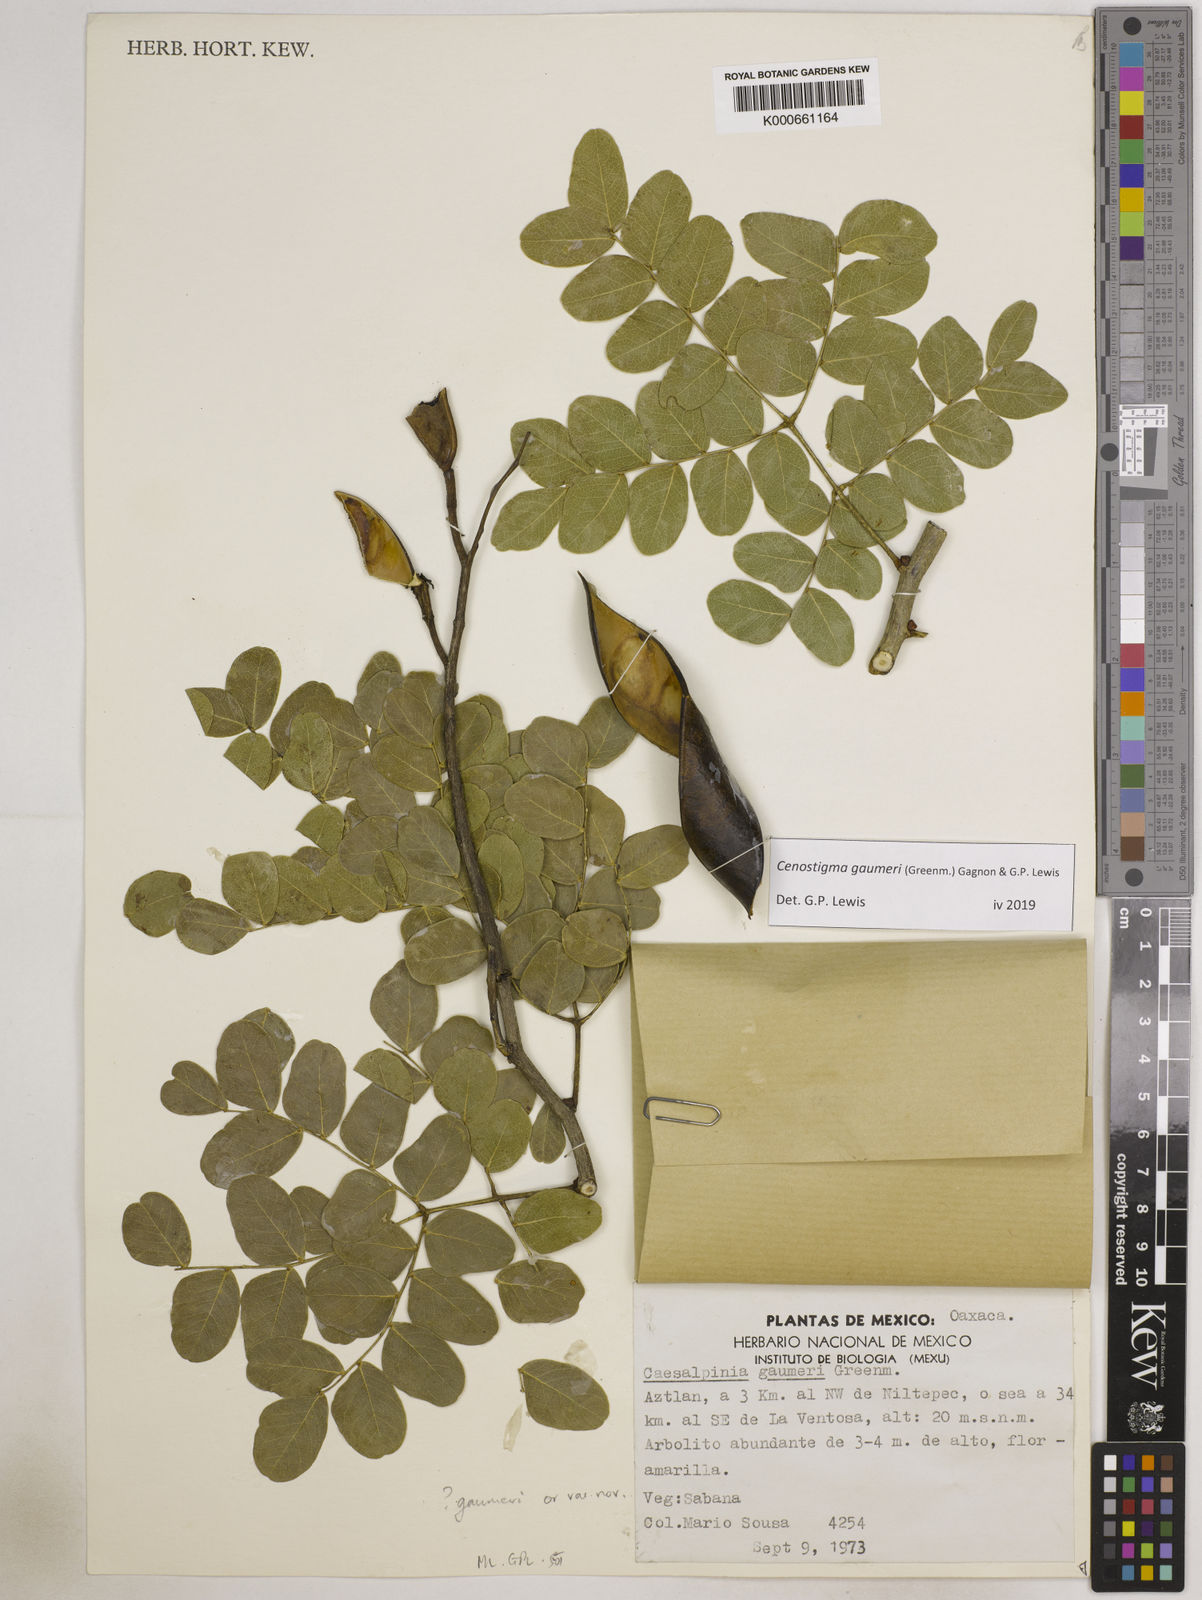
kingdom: Plantae
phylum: Tracheophyta
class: Magnoliopsida
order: Fabales
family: Fabaceae
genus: Cenostigma
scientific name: Cenostigma gaumeri
